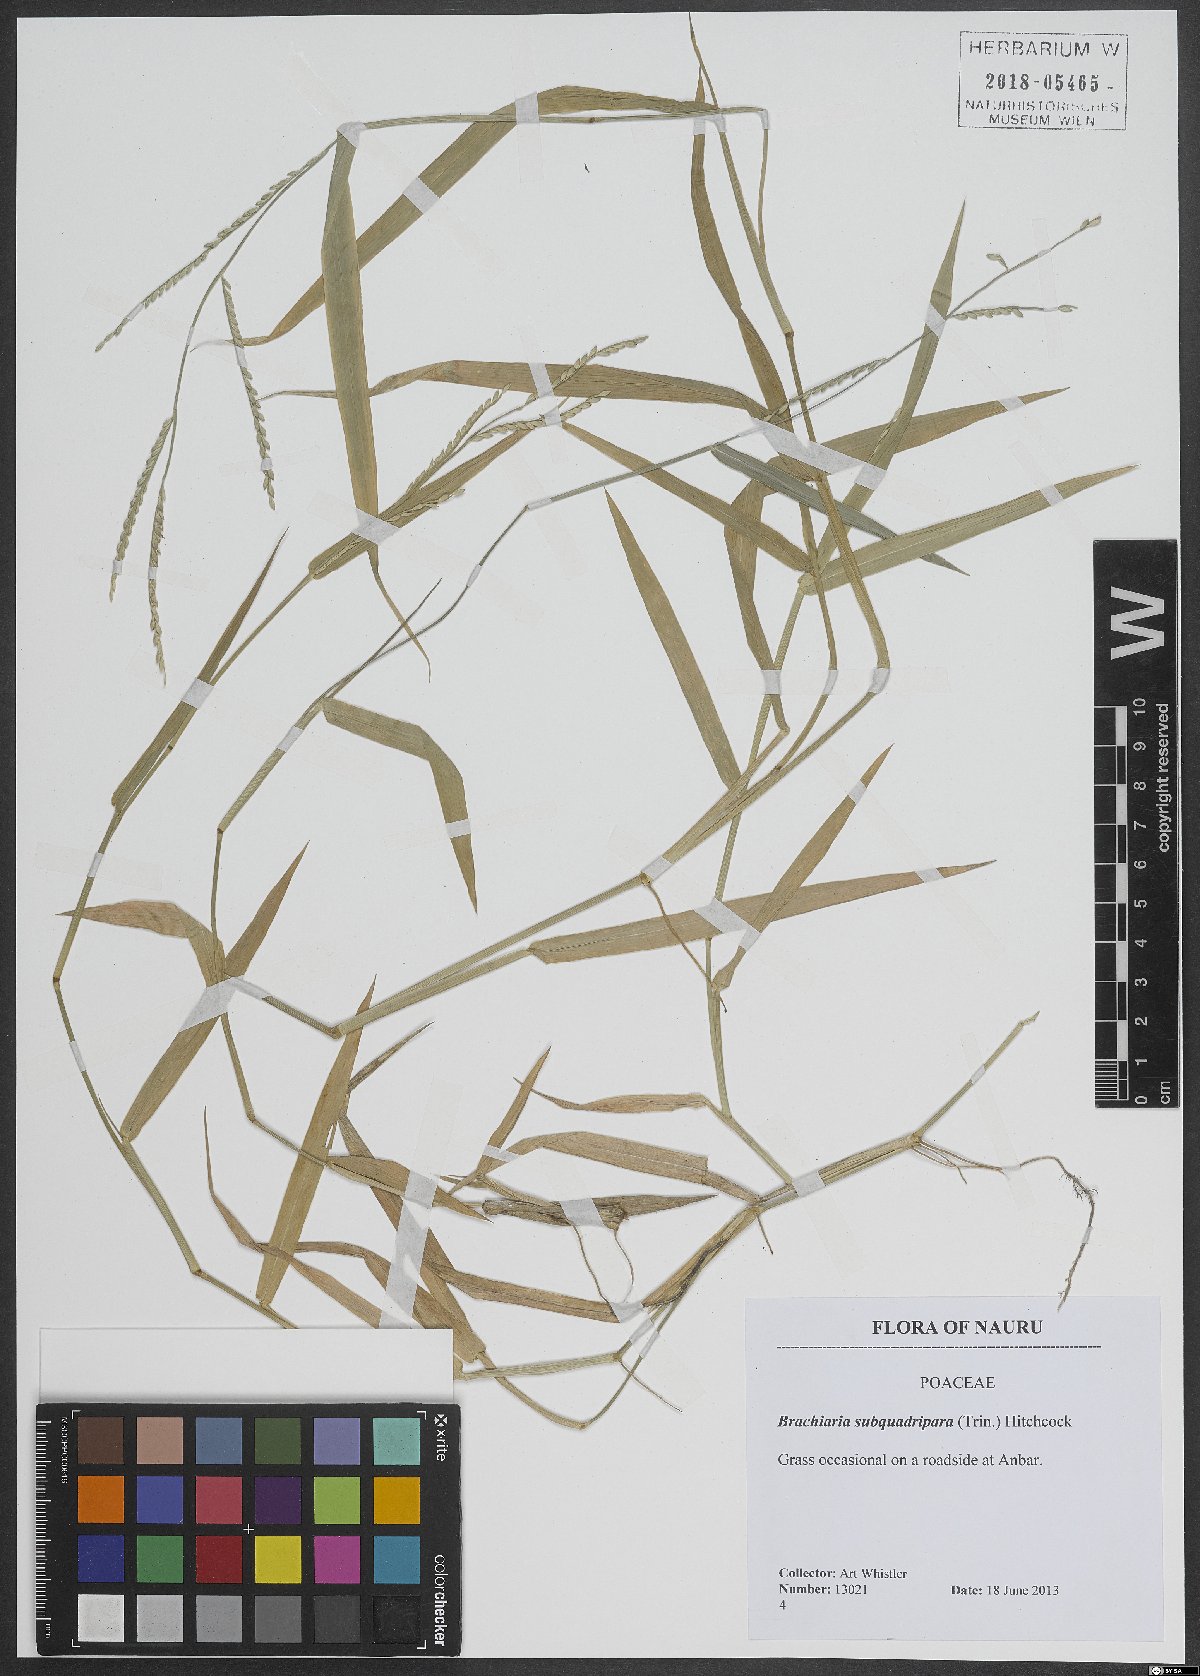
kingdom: Plantae
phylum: Tracheophyta
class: Liliopsida
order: Poales
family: Poaceae
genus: Urochloa
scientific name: Urochloa subquadripara
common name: Armgrass millet
